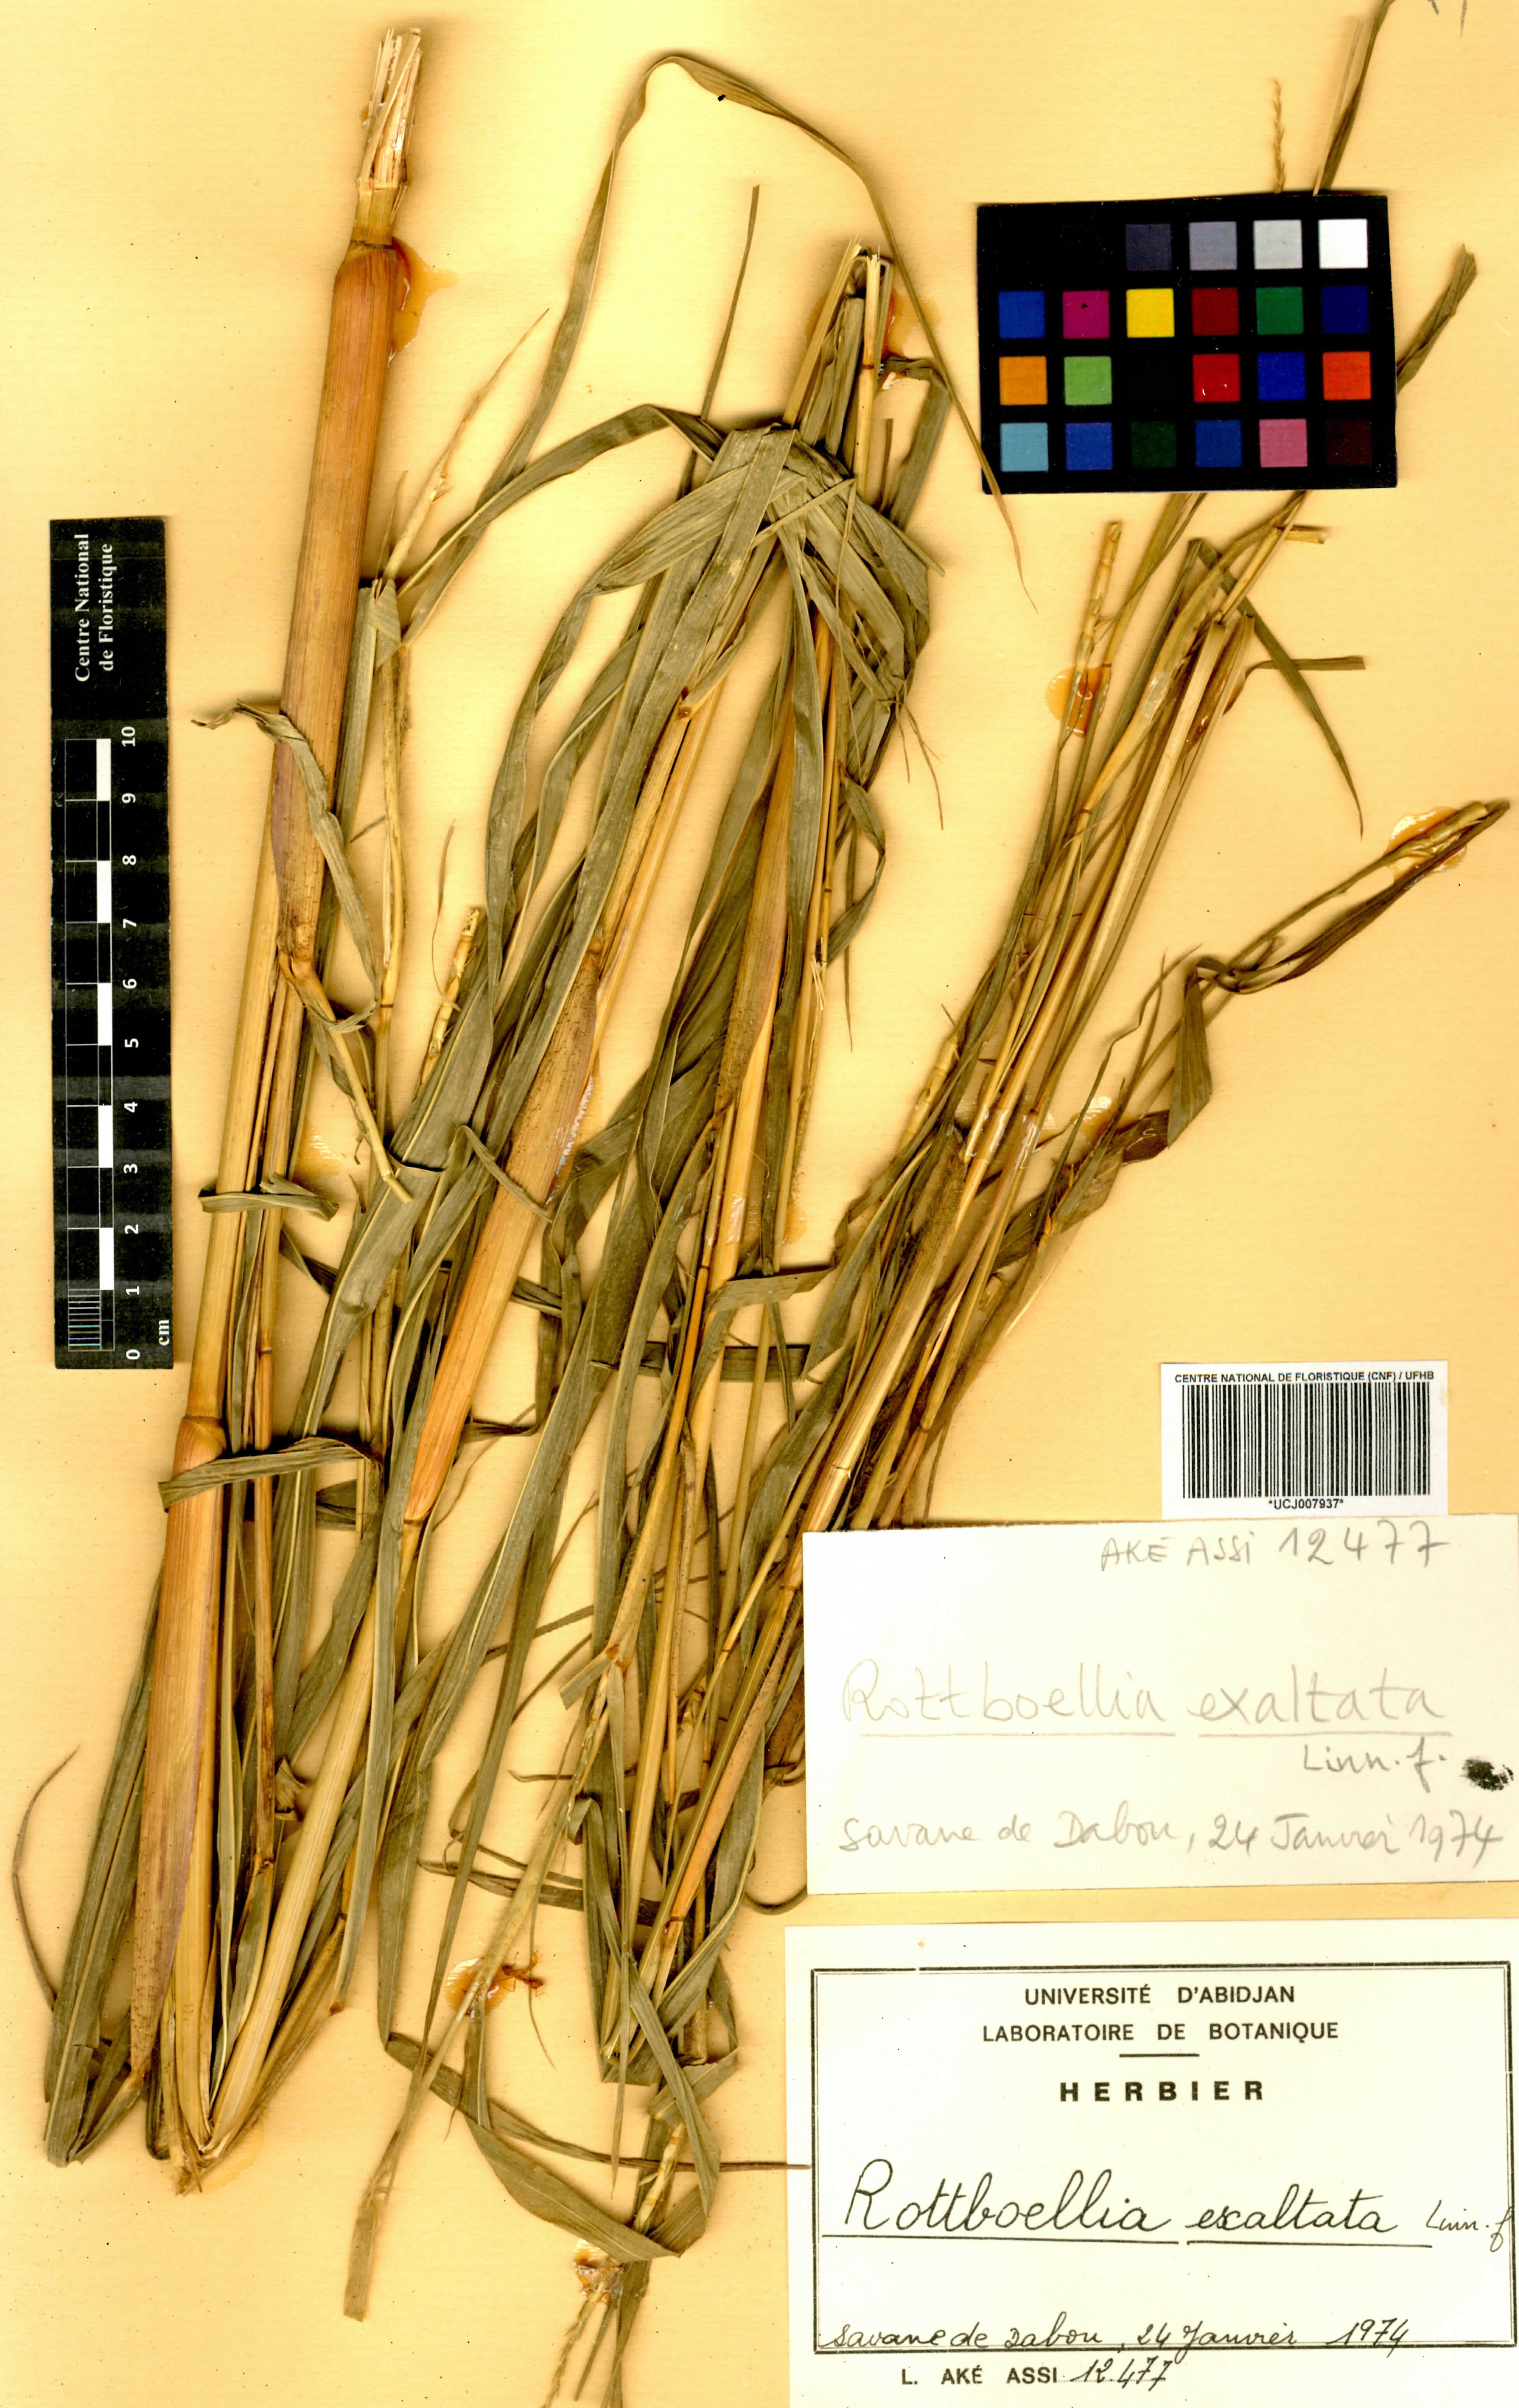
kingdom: Plantae
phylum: Tracheophyta
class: Liliopsida
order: Poales
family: Poaceae
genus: Rottboellia
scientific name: Rottboellia
